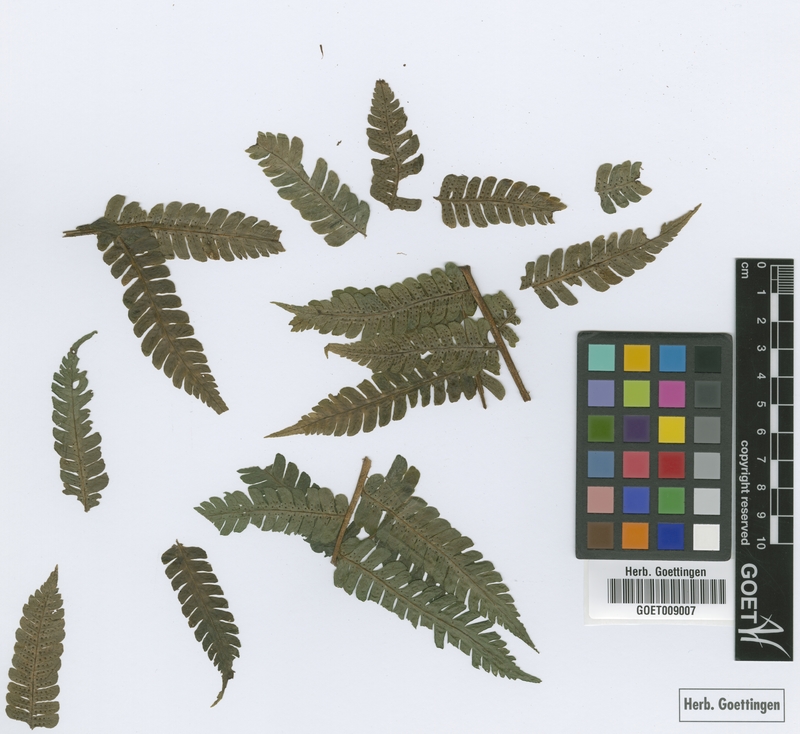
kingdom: Plantae
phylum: Tracheophyta
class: Polypodiopsida
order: Polypodiales
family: Dryopteridaceae
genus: Megalastrum
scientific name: Megalastrum aureisquama
